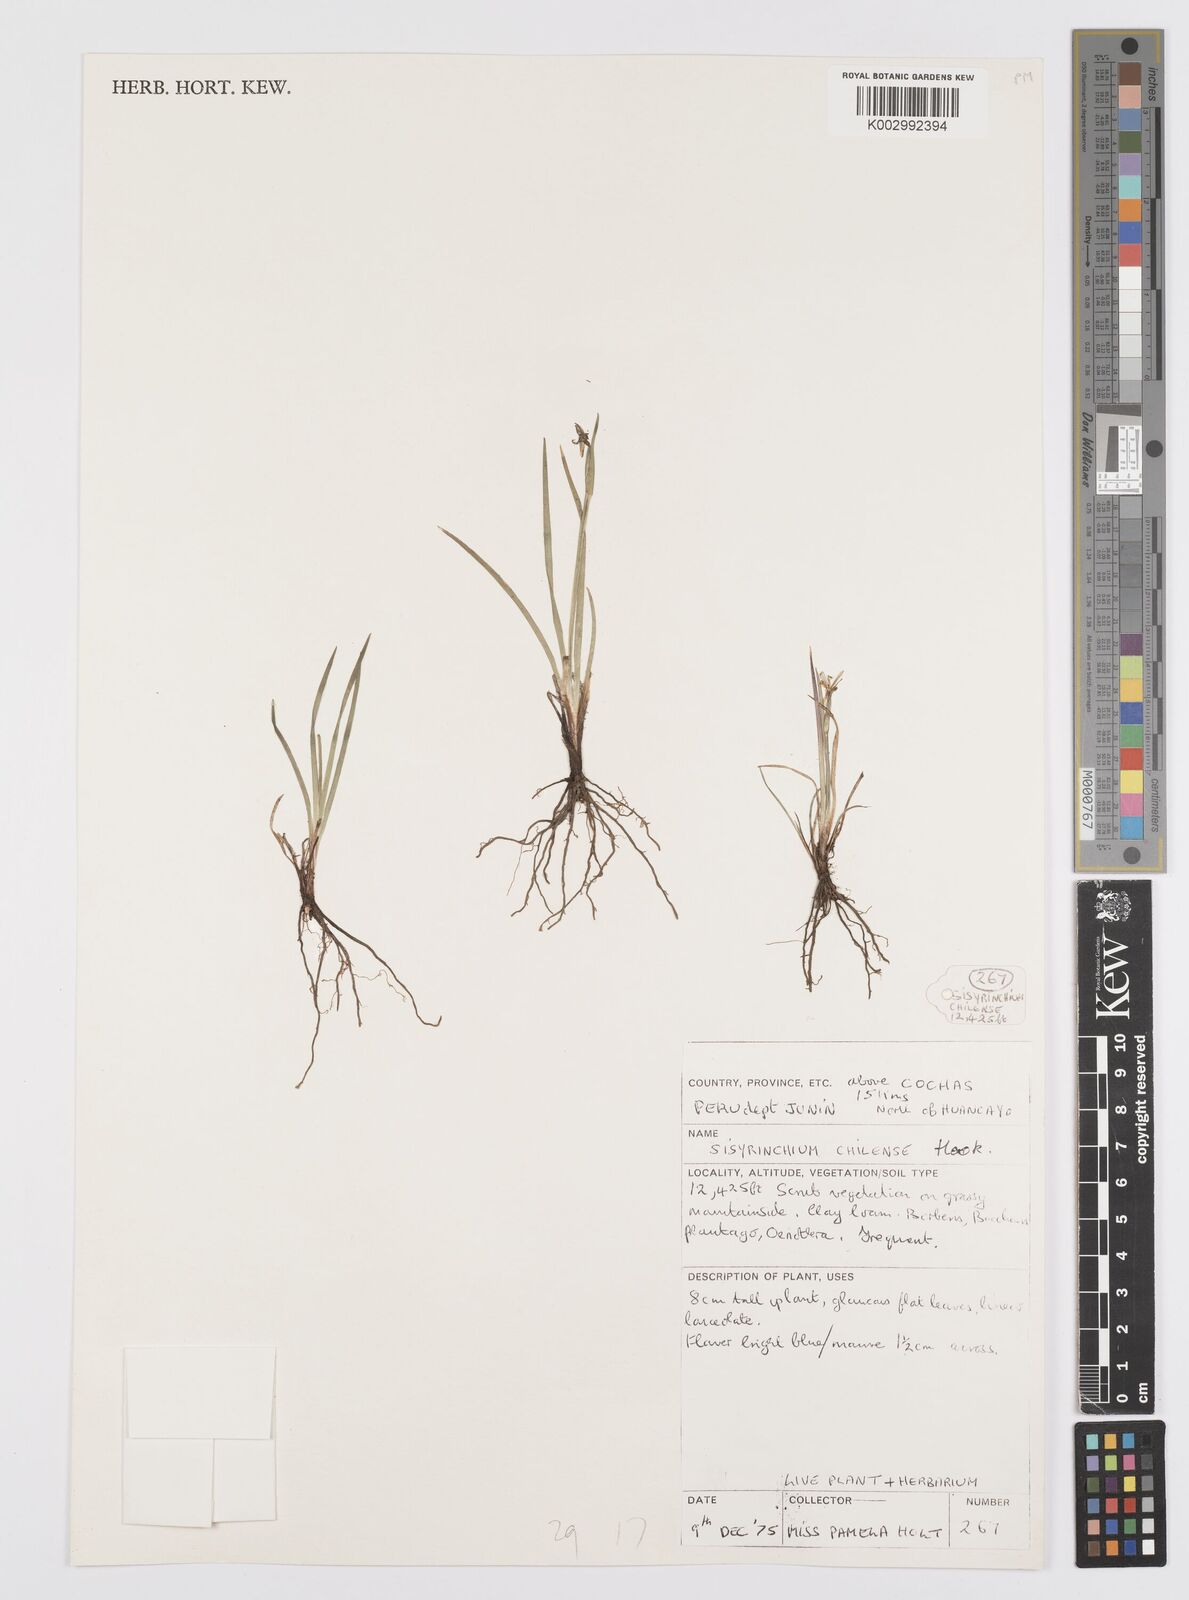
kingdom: Plantae
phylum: Tracheophyta
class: Liliopsida
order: Asparagales
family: Iridaceae
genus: Sisyrinchium
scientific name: Sisyrinchium chilense
